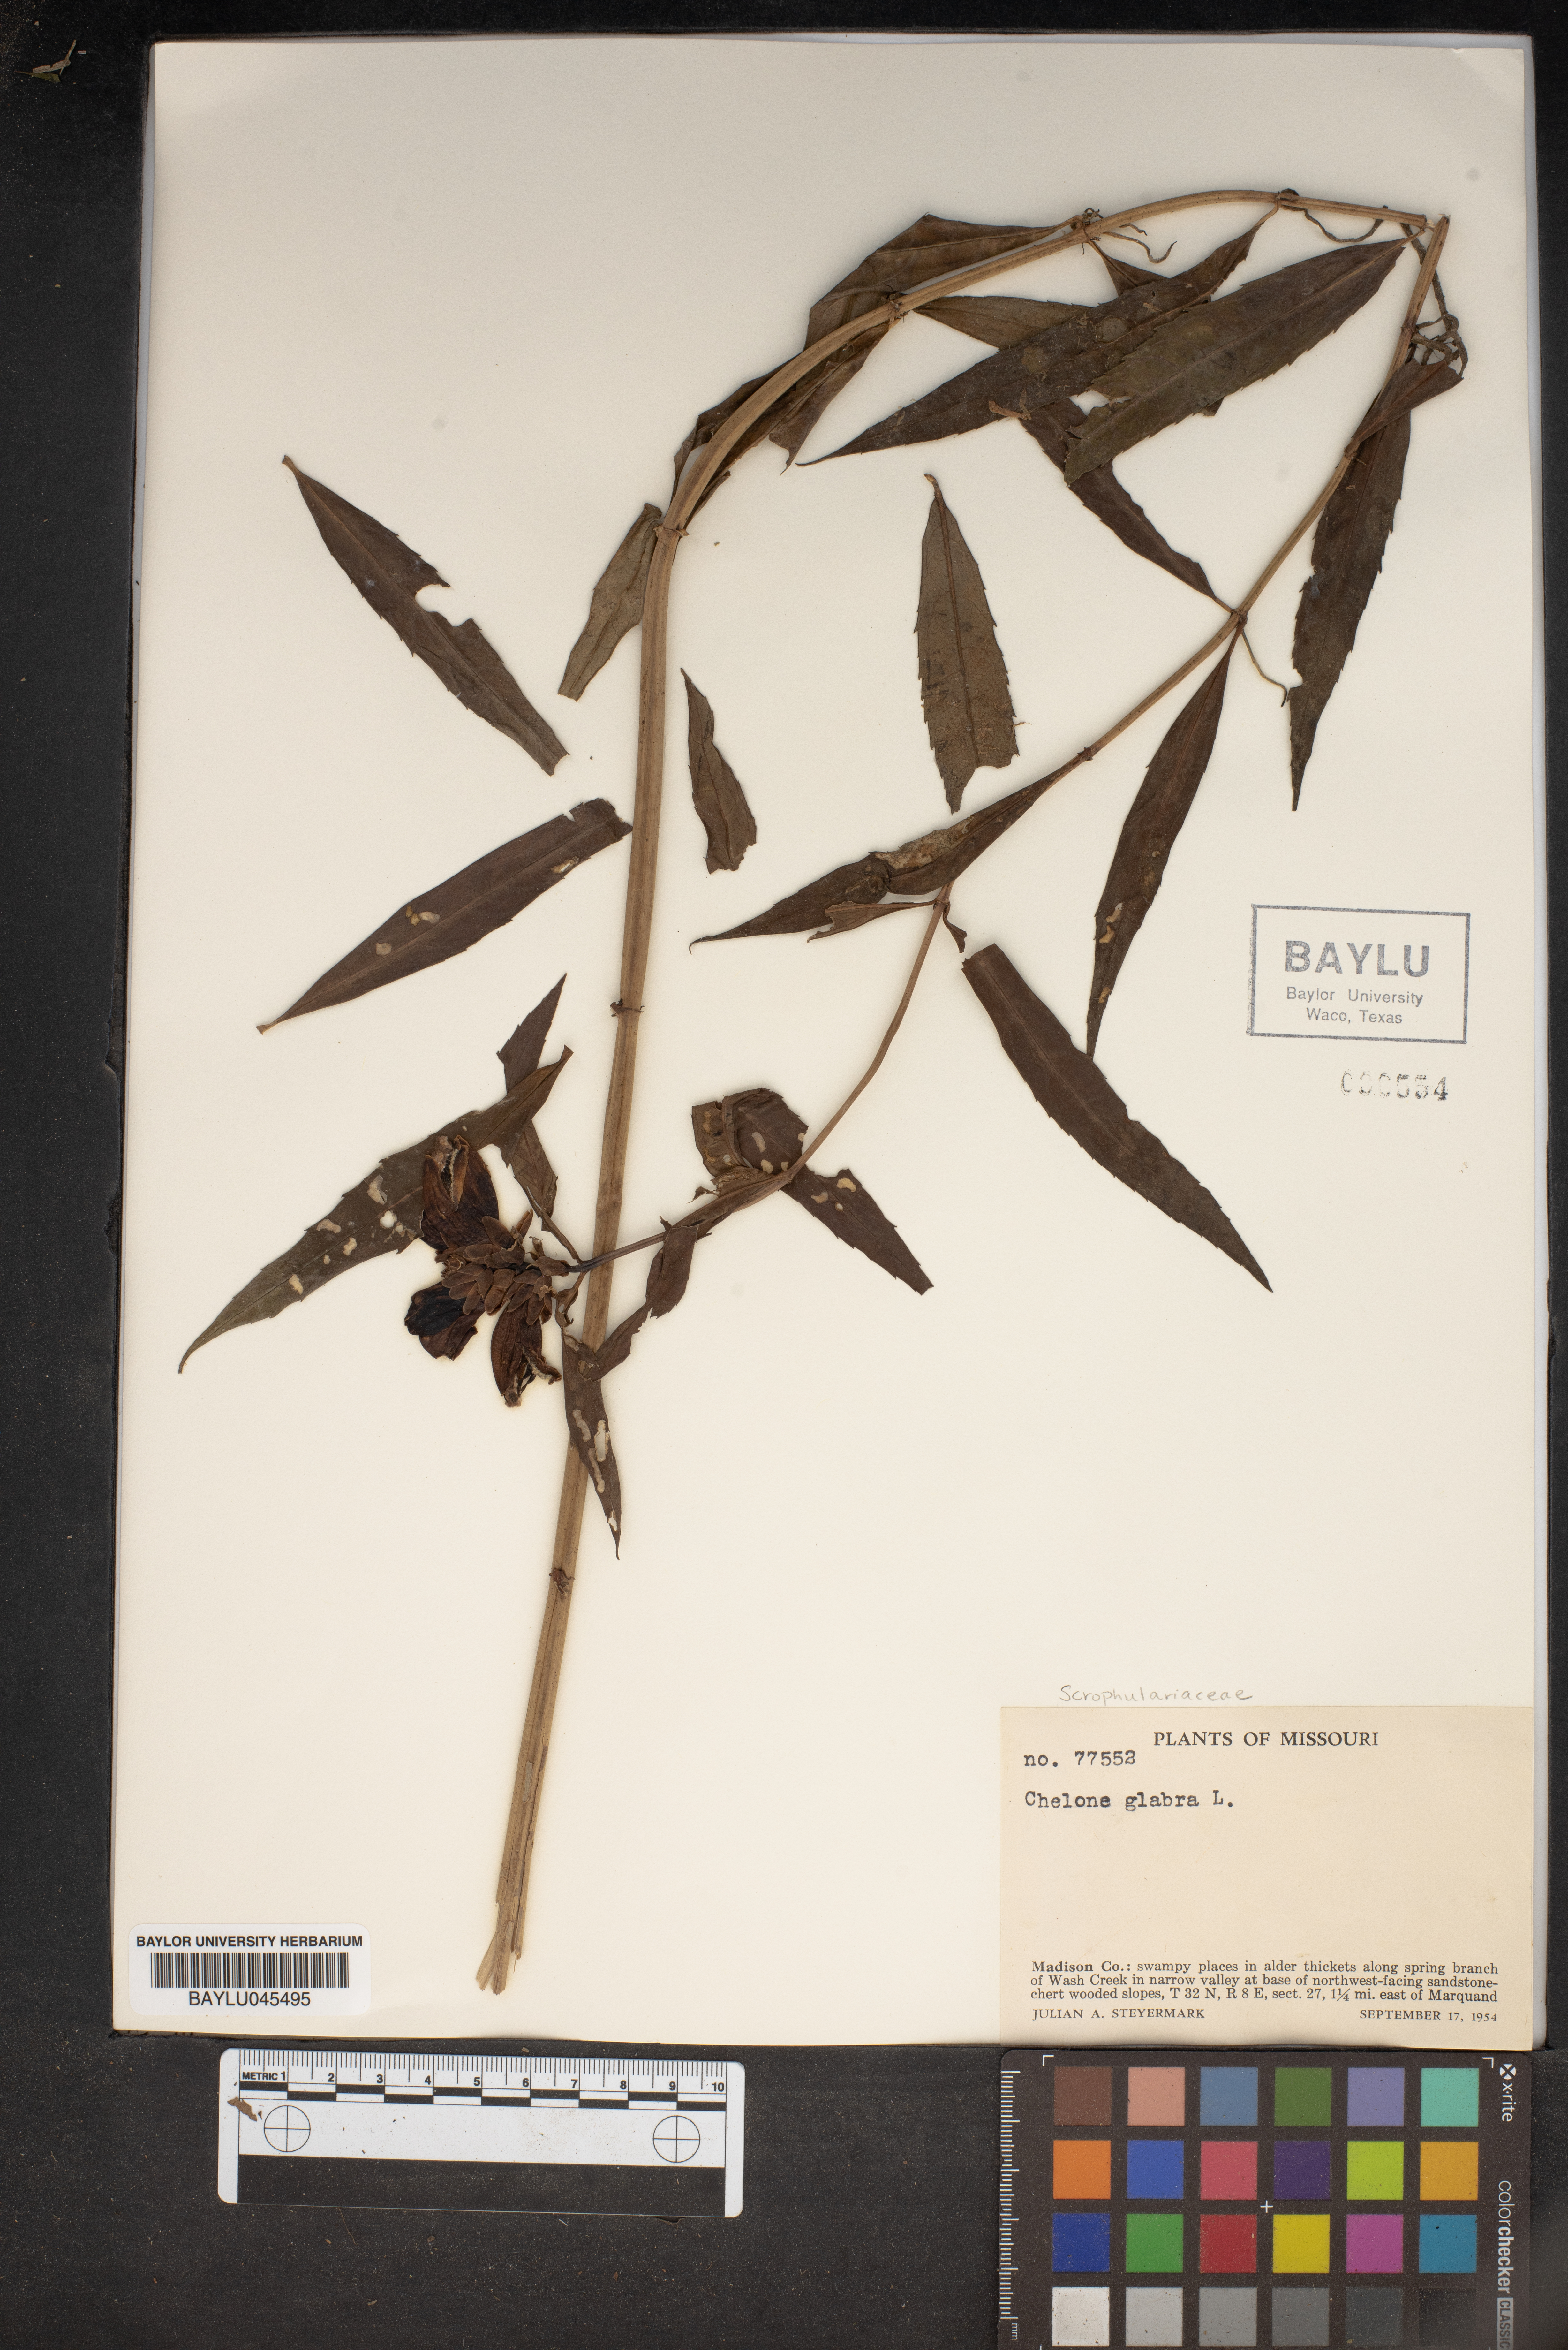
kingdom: Plantae
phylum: Tracheophyta
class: Magnoliopsida
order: Lamiales
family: Plantaginaceae
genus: Chelone
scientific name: Chelone glabra
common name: Snakehead
